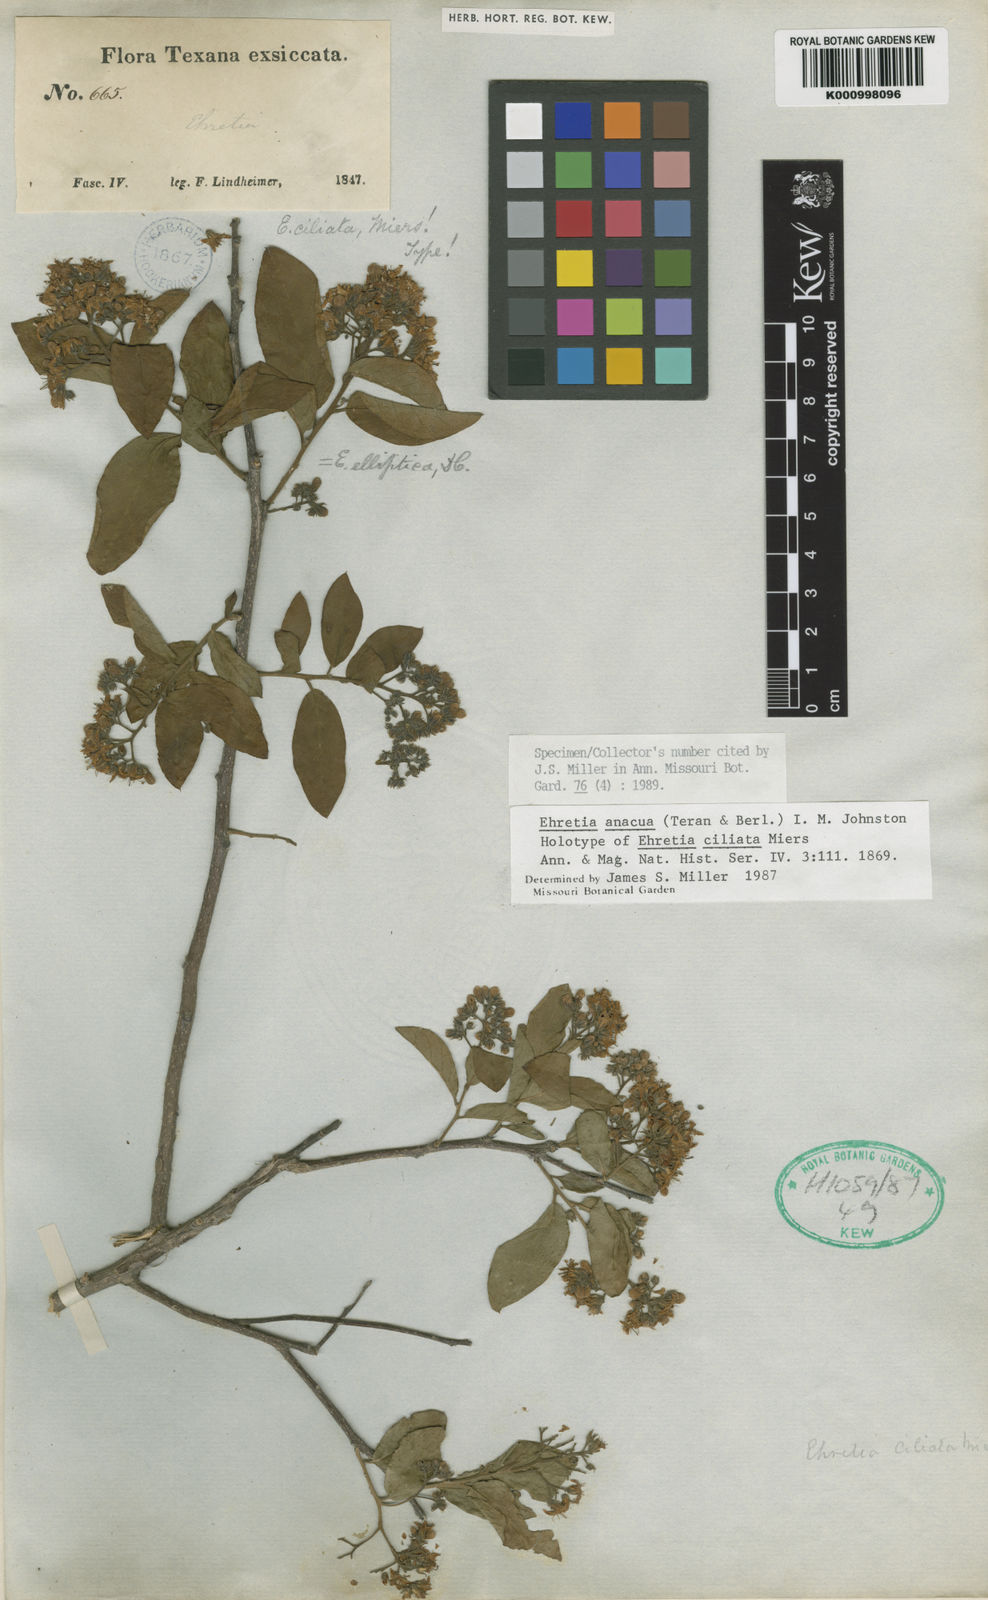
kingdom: Plantae
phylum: Tracheophyta
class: Magnoliopsida
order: Boraginales
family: Ehretiaceae
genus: Ehretia
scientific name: Ehretia anacua
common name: Sugarberry
